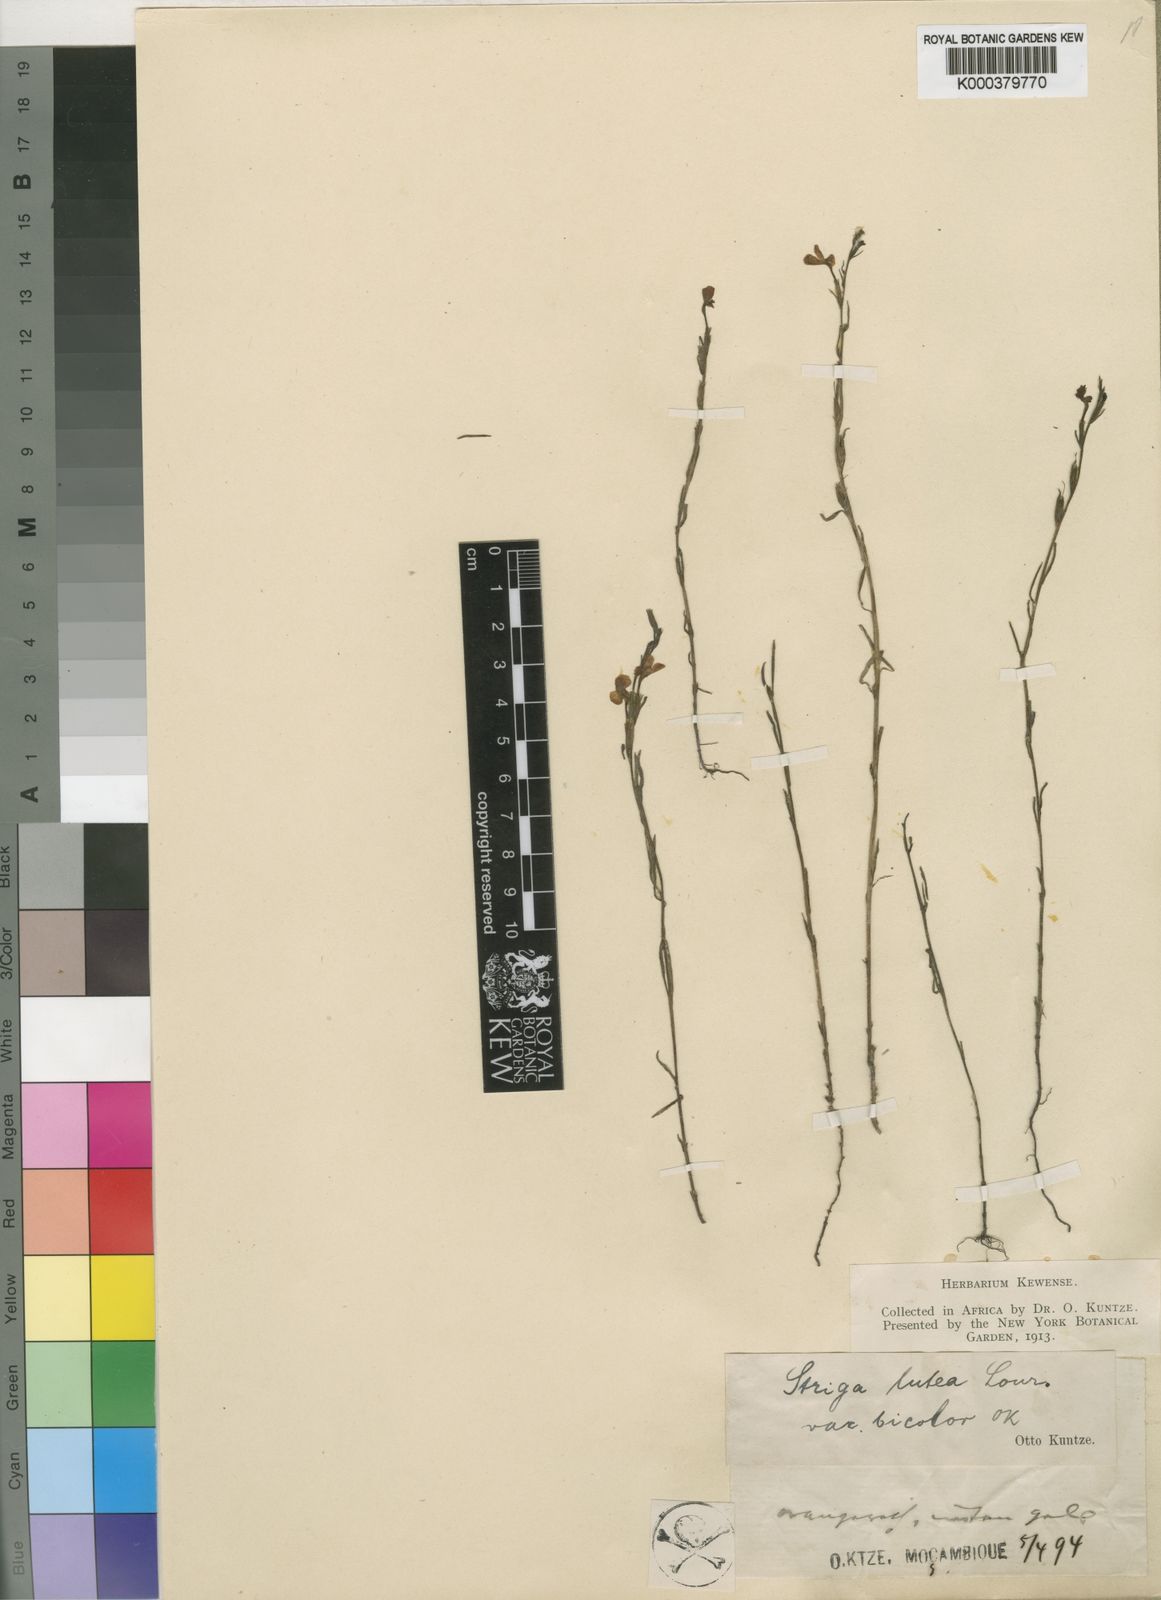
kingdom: Plantae
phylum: Tracheophyta
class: Magnoliopsida
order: Lamiales
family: Orobanchaceae
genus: Striga
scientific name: Striga lutea
